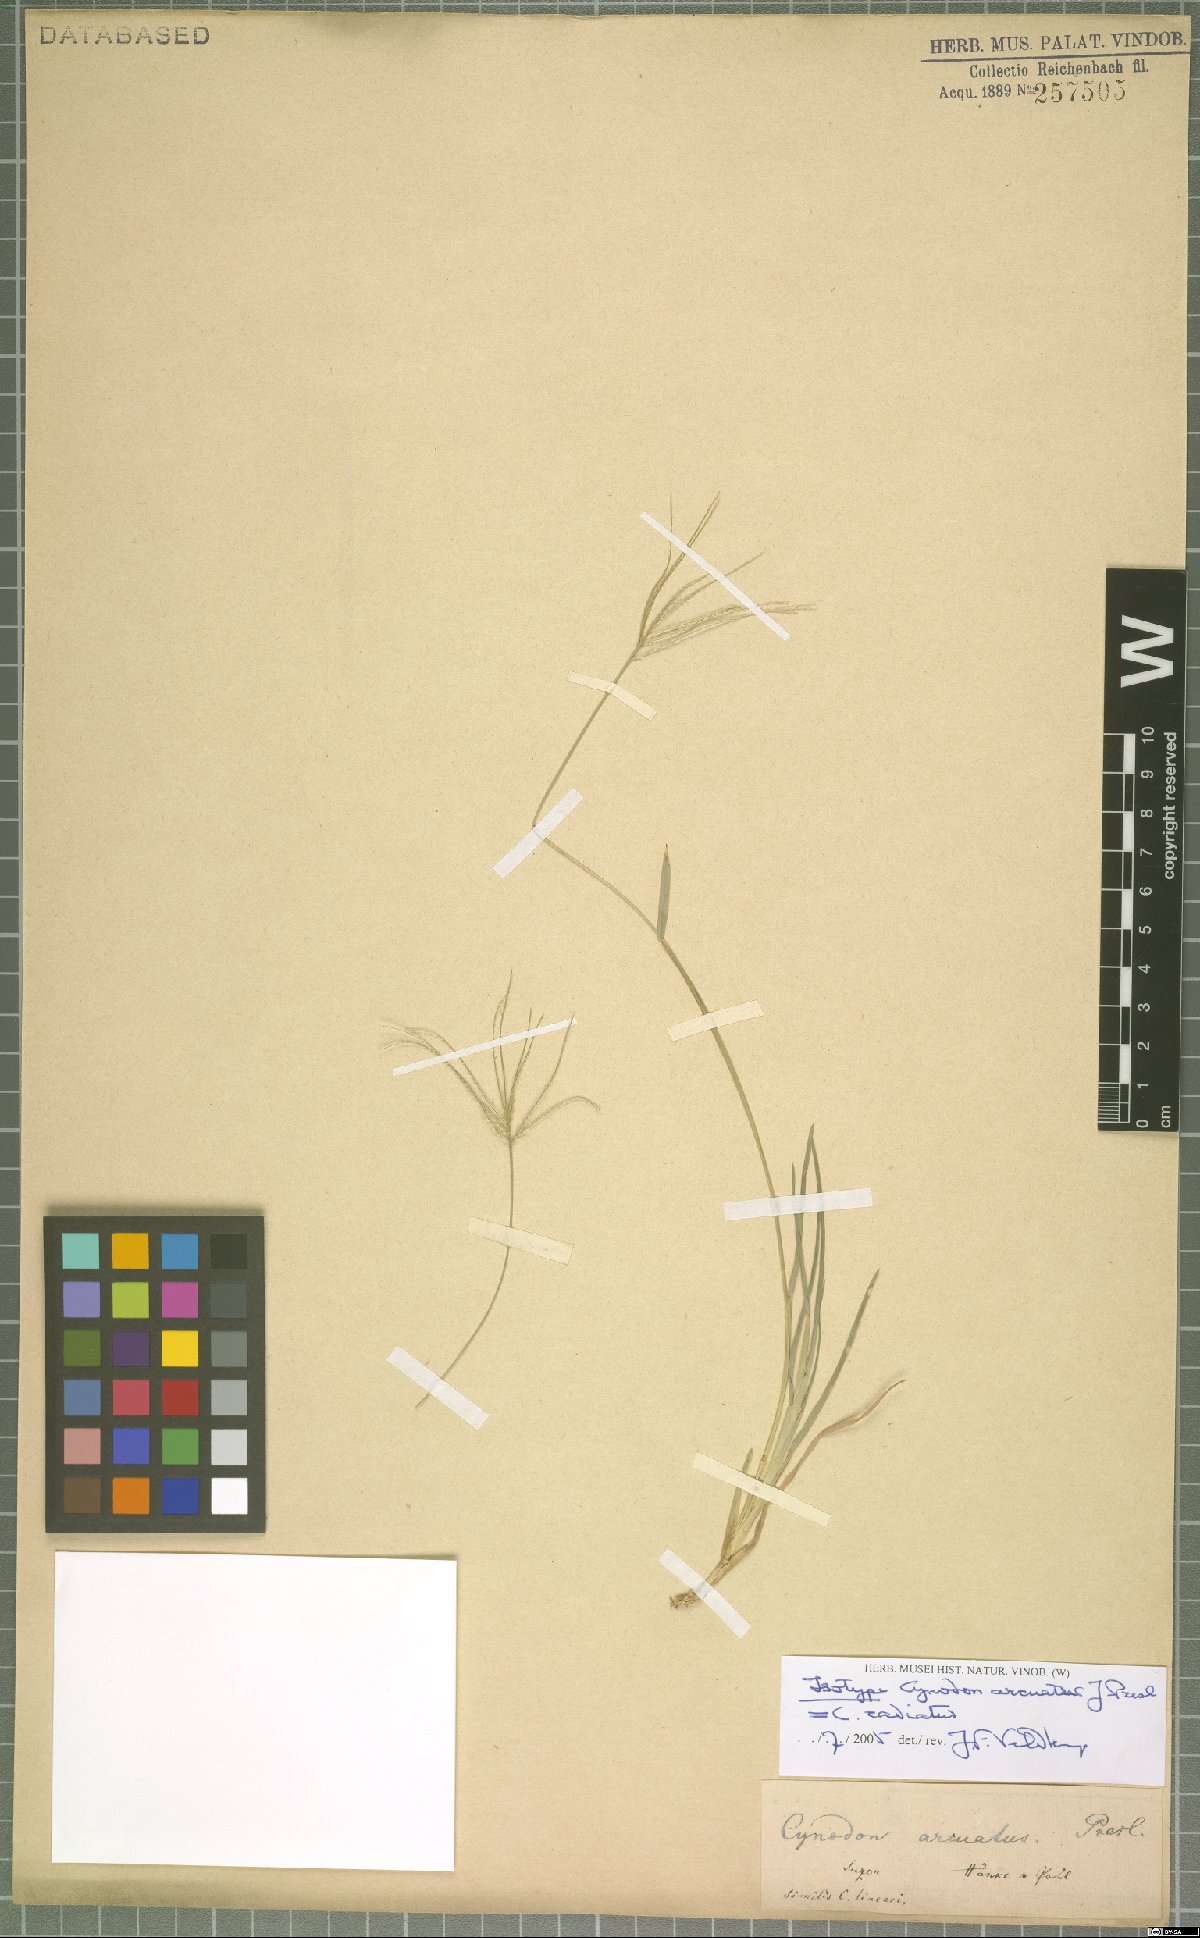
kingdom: Plantae
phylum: Tracheophyta
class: Liliopsida
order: Poales
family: Poaceae
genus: Cynodon
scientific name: Cynodon radiatus
